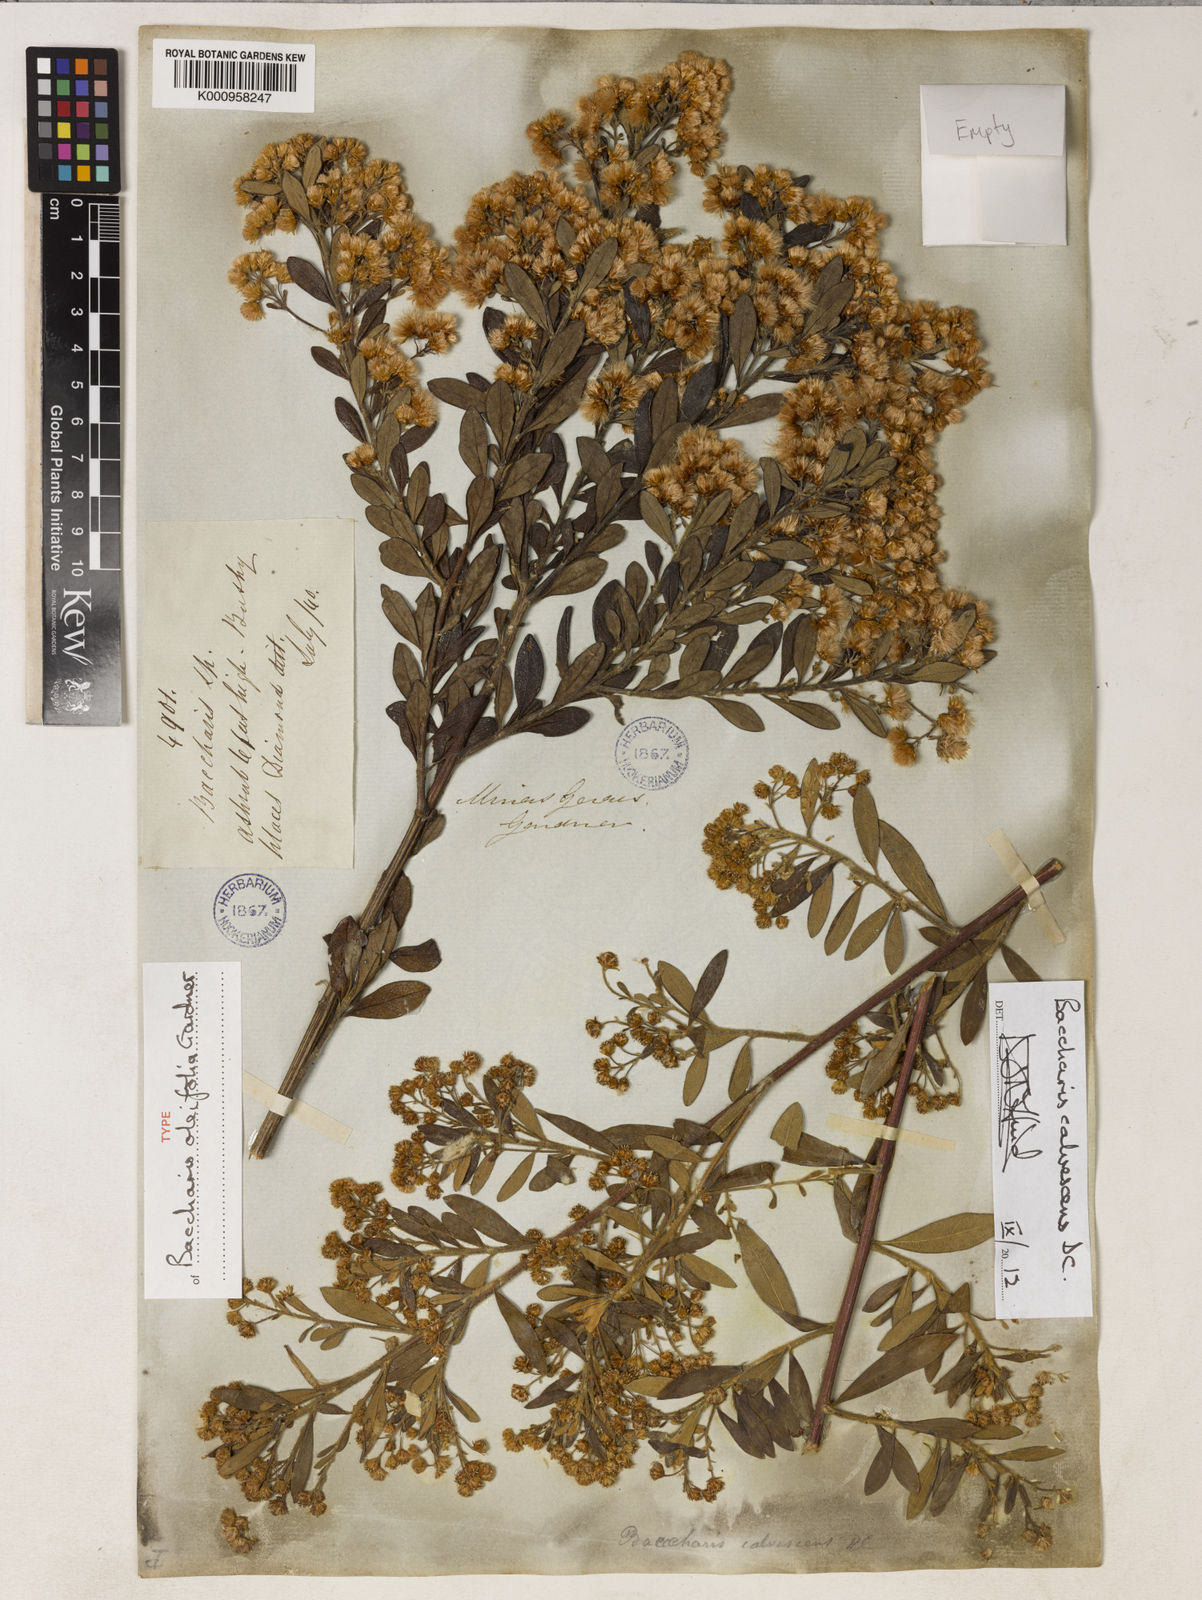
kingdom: Plantae
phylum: Tracheophyta
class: Magnoliopsida
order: Asterales
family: Asteraceae
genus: Baccharis
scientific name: Baccharis calvescens
